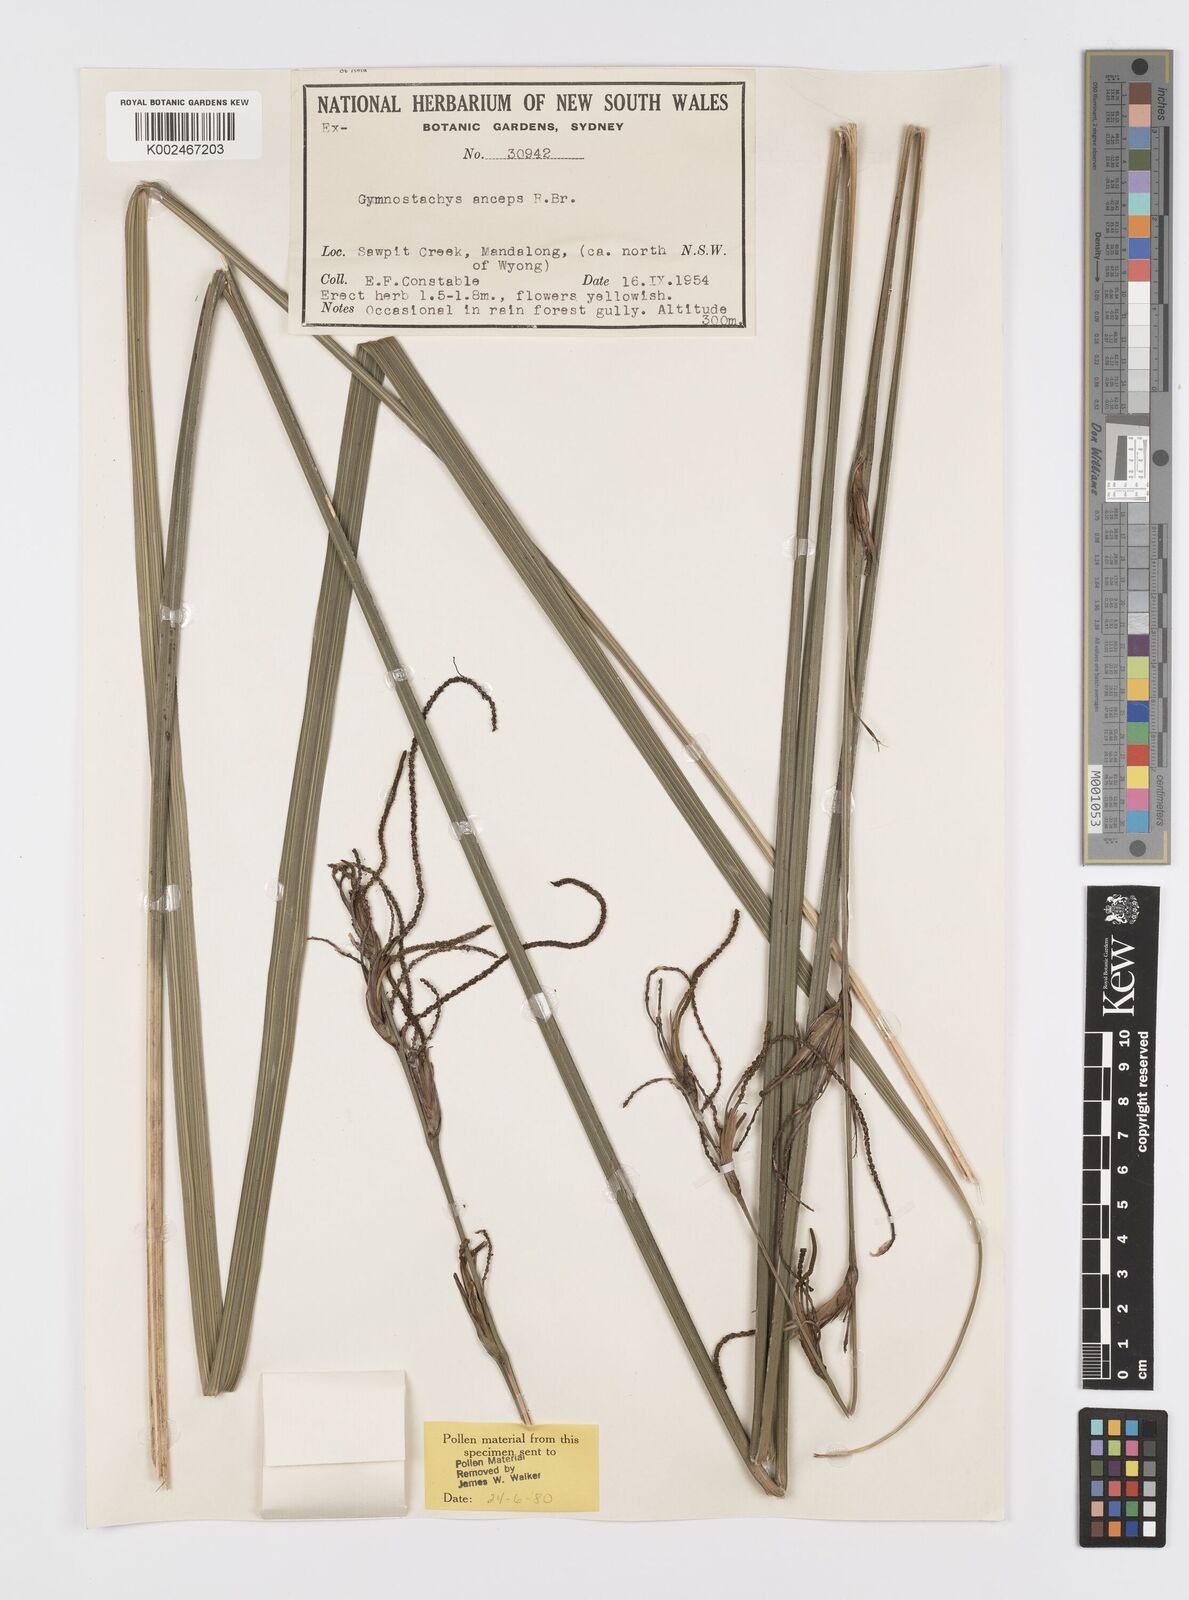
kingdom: Plantae
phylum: Tracheophyta
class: Liliopsida
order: Alismatales
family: Araceae
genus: Gymnostachys
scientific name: Gymnostachys anceps
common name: Settler's-flax
